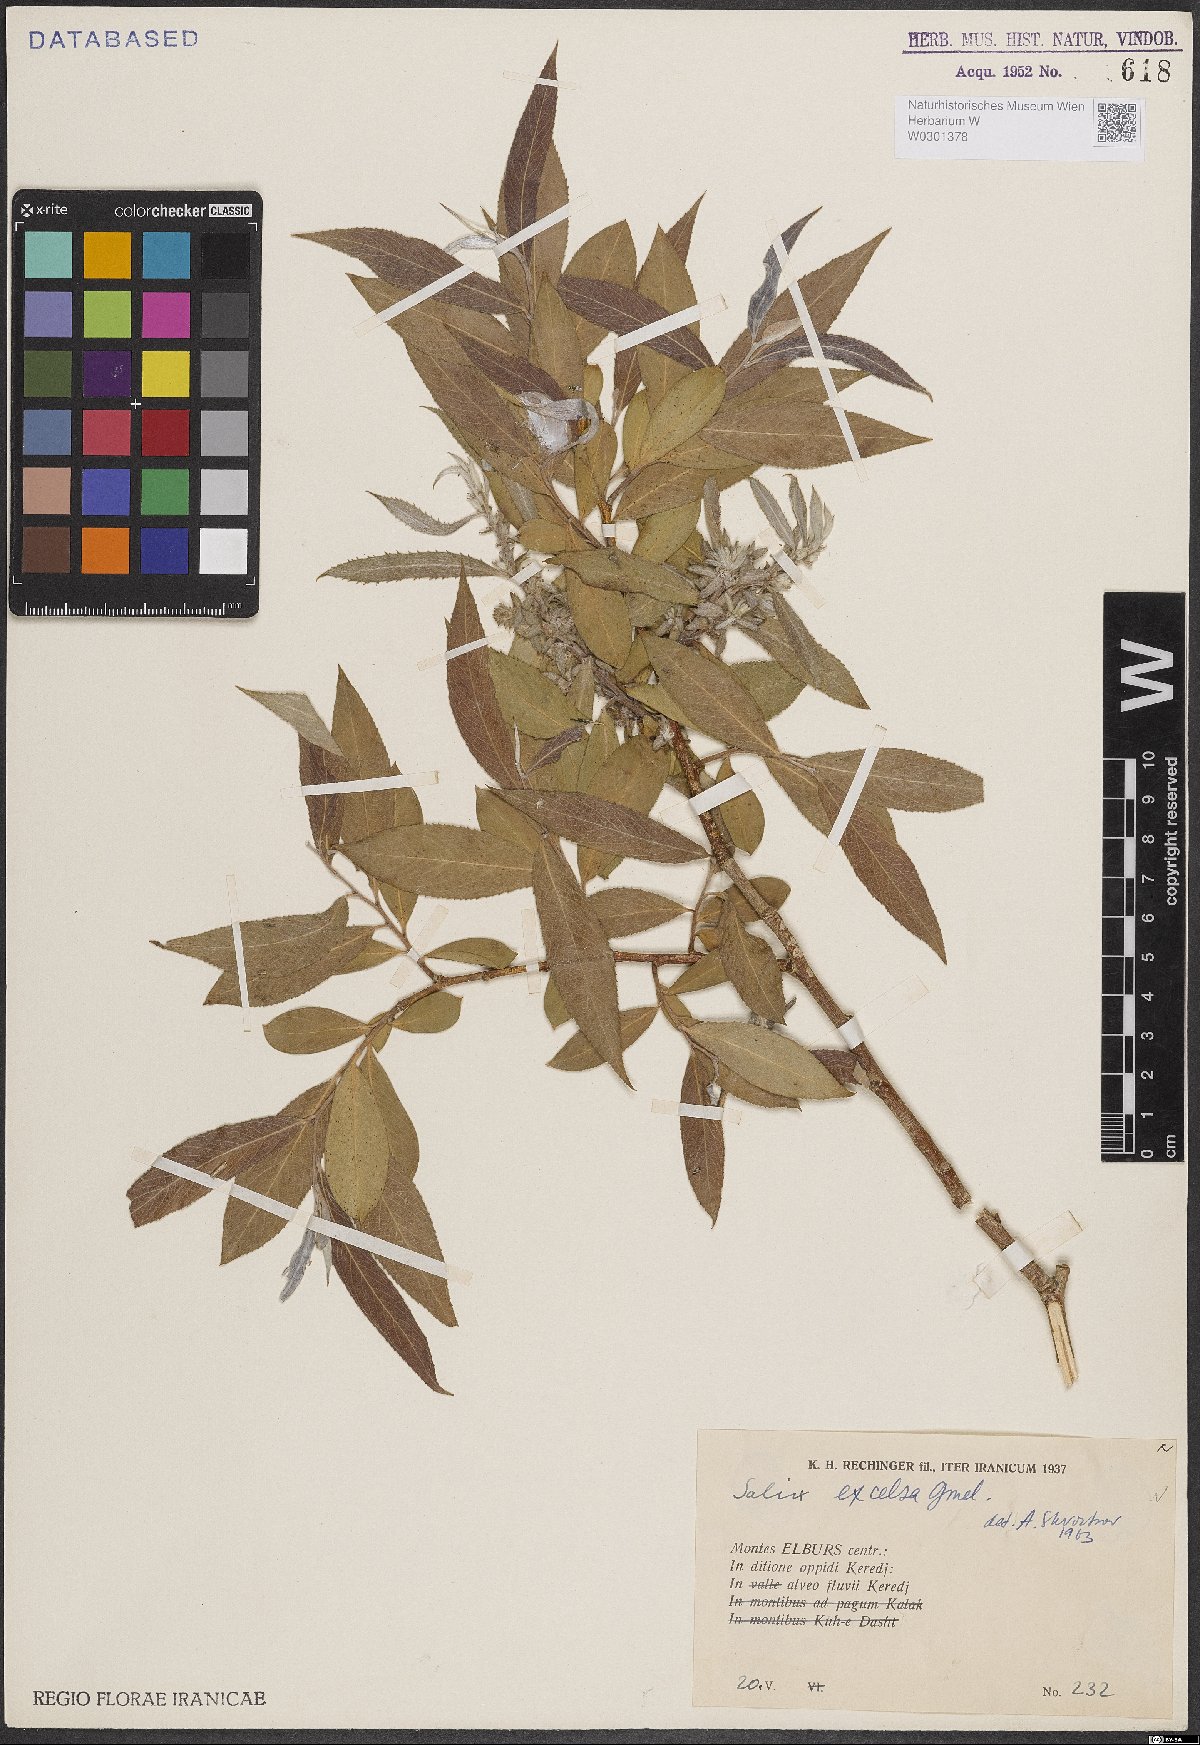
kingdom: Plantae
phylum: Tracheophyta
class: Magnoliopsida
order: Malpighiales
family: Salicaceae
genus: Salix
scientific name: Salix excelsa
